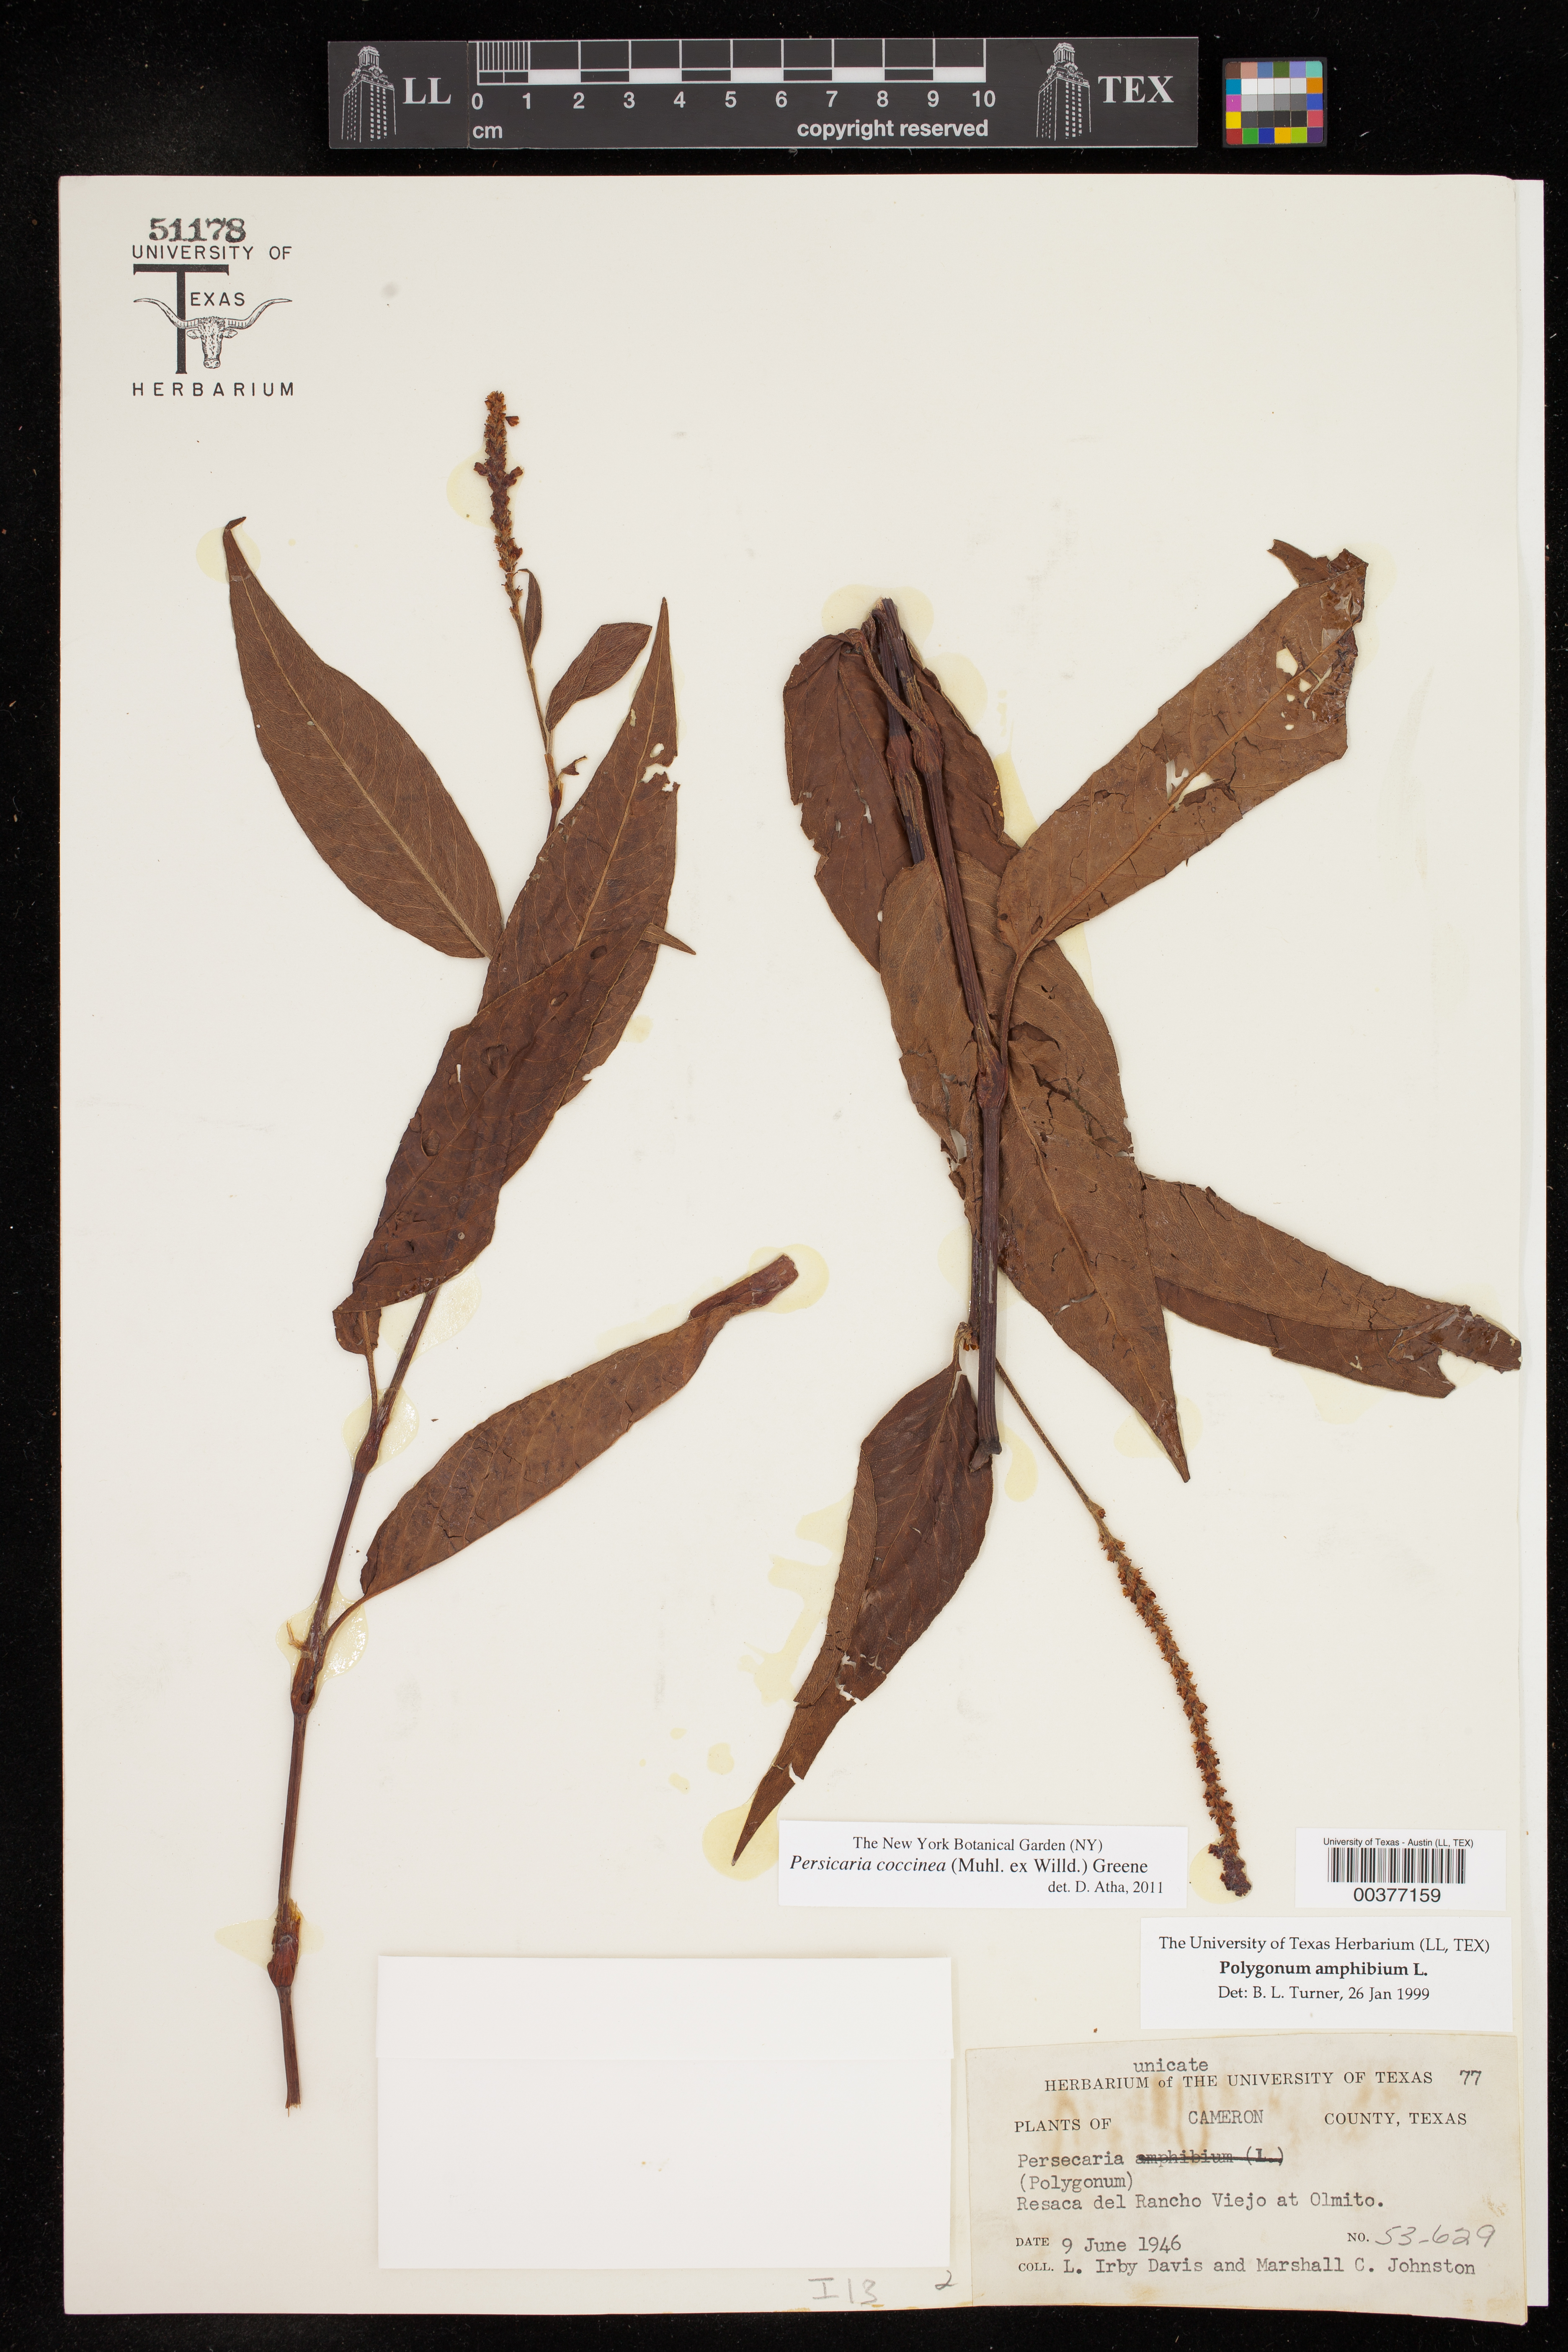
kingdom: Plantae
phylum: Tracheophyta
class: Magnoliopsida
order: Caryophyllales
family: Polygonaceae
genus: Persicaria
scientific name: Persicaria amphibia
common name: Amphibious bistort
